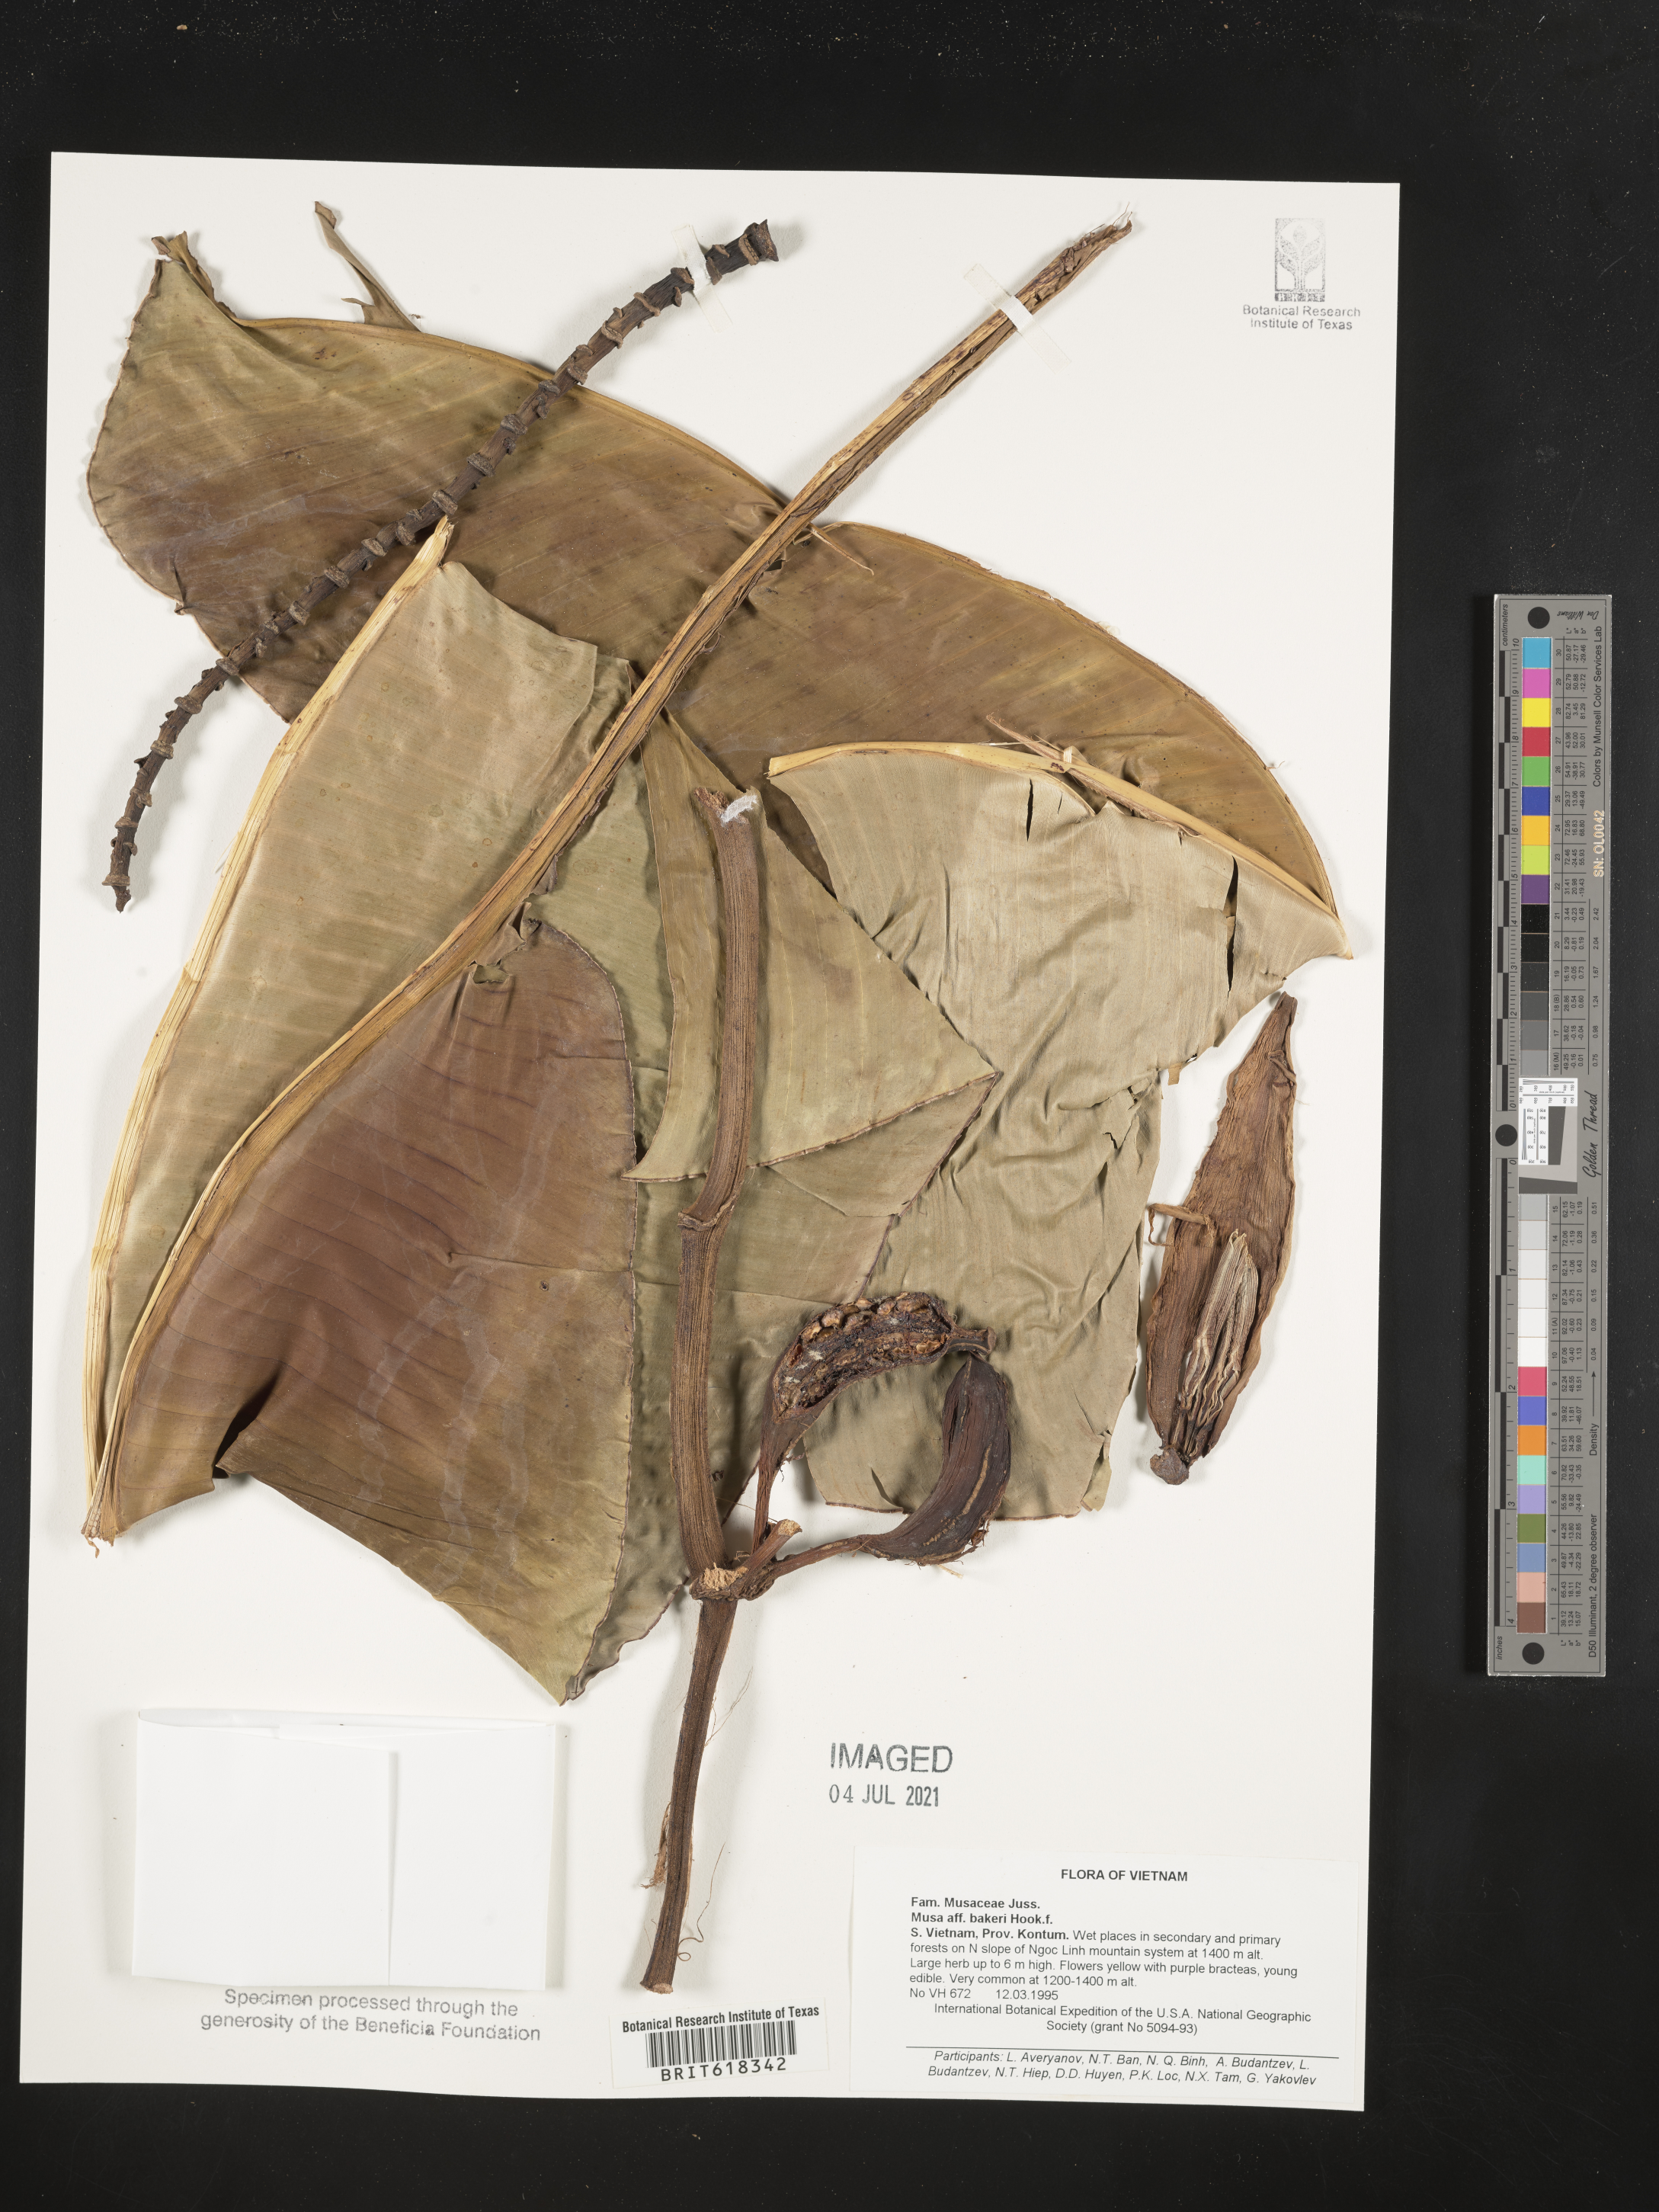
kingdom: Plantae
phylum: Tracheophyta
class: Liliopsida
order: Zingiberales
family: Musaceae
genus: Musa
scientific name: Musa balbisiana
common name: Plantain
